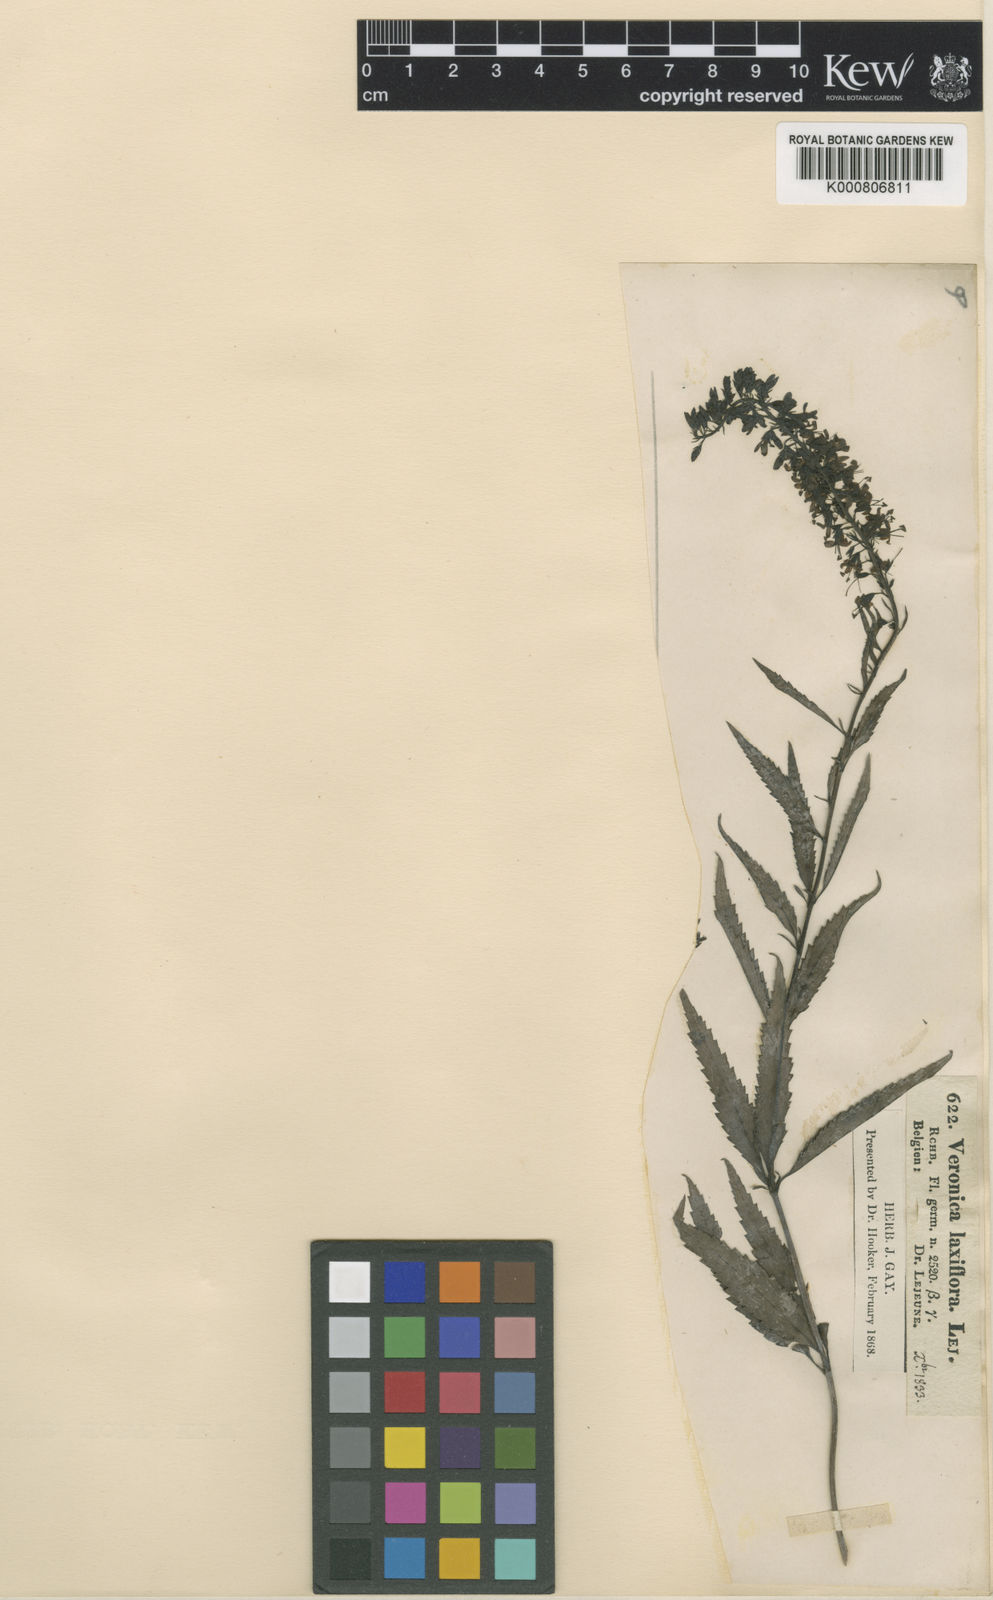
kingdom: Plantae
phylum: Tracheophyta
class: Magnoliopsida
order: Lamiales
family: Plantaginaceae
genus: Veronica
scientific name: Veronica longifolia
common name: Garden speedwell
